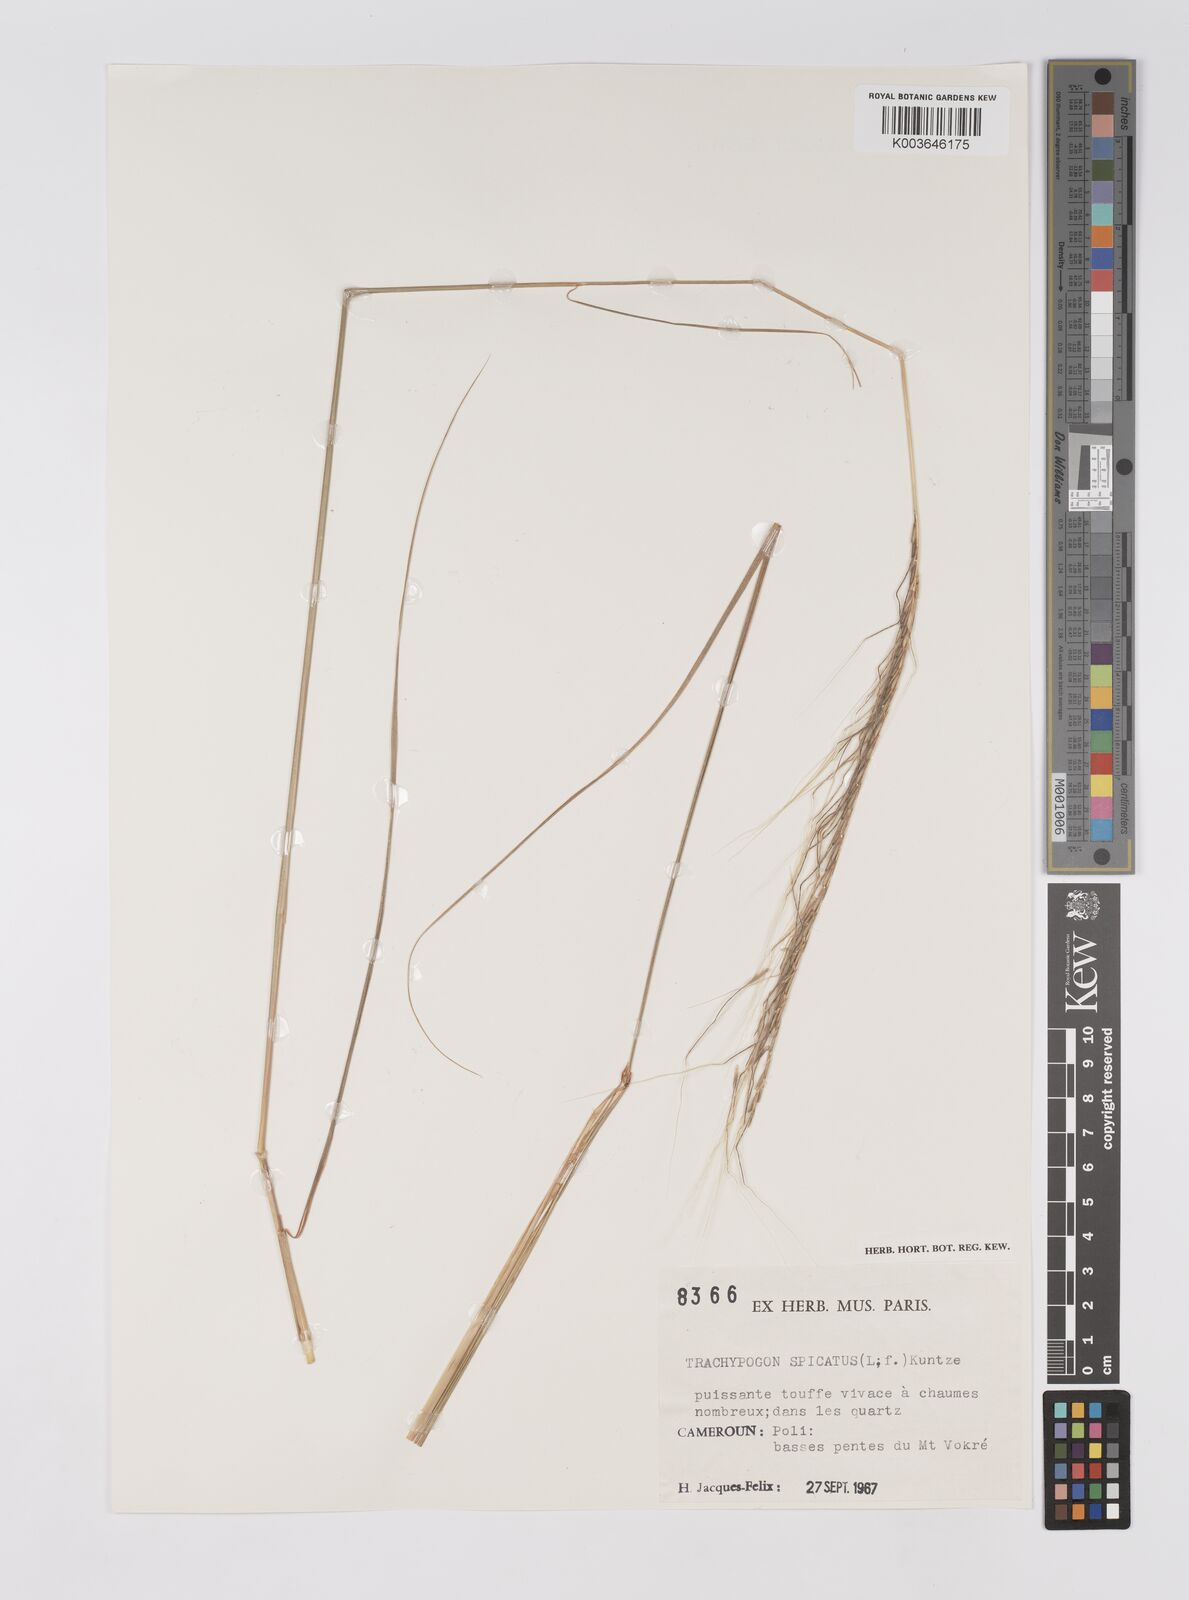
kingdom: Plantae
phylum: Tracheophyta
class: Liliopsida
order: Poales
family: Poaceae
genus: Trachypogon
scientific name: Trachypogon spicatus
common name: Crinkle-awn
